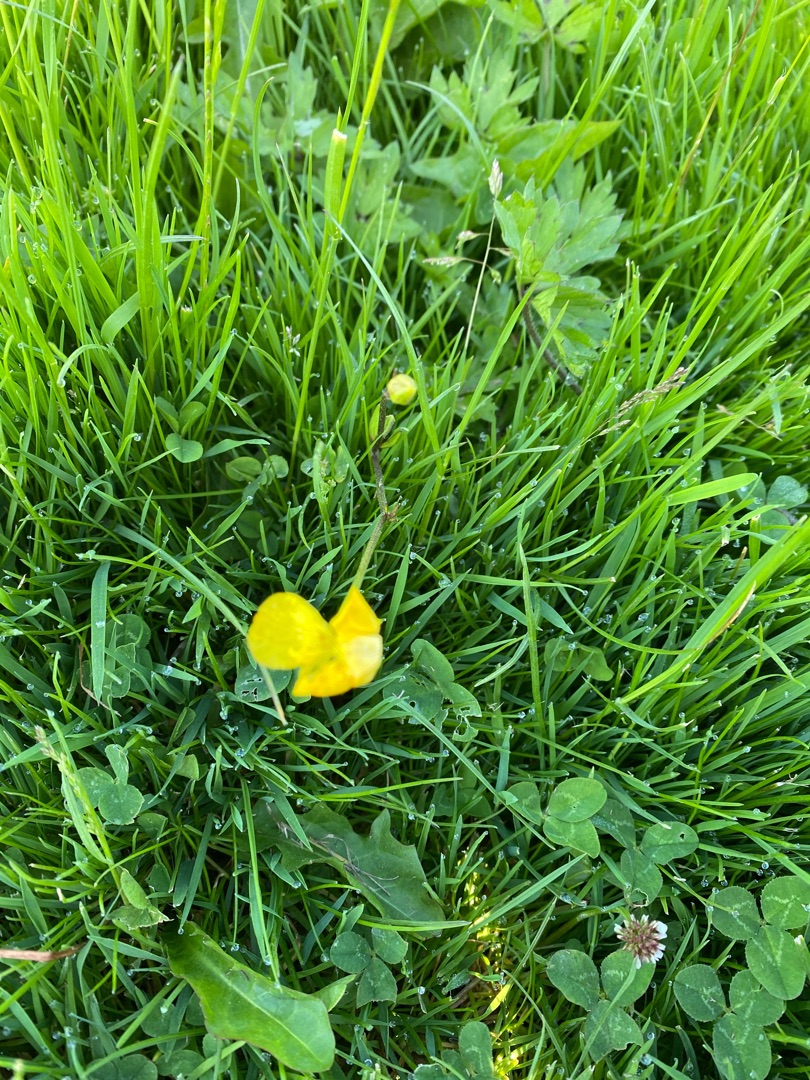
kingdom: Plantae
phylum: Tracheophyta
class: Magnoliopsida
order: Ranunculales
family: Ranunculaceae
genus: Ranunculus
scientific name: Ranunculus repens
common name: Lav ranunkel
